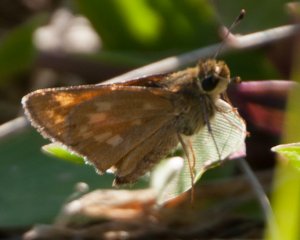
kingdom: Animalia
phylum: Arthropoda
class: Insecta
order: Lepidoptera
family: Hesperiidae
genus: Hesperia
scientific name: Hesperia sassacus
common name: Sassacus Skipper
